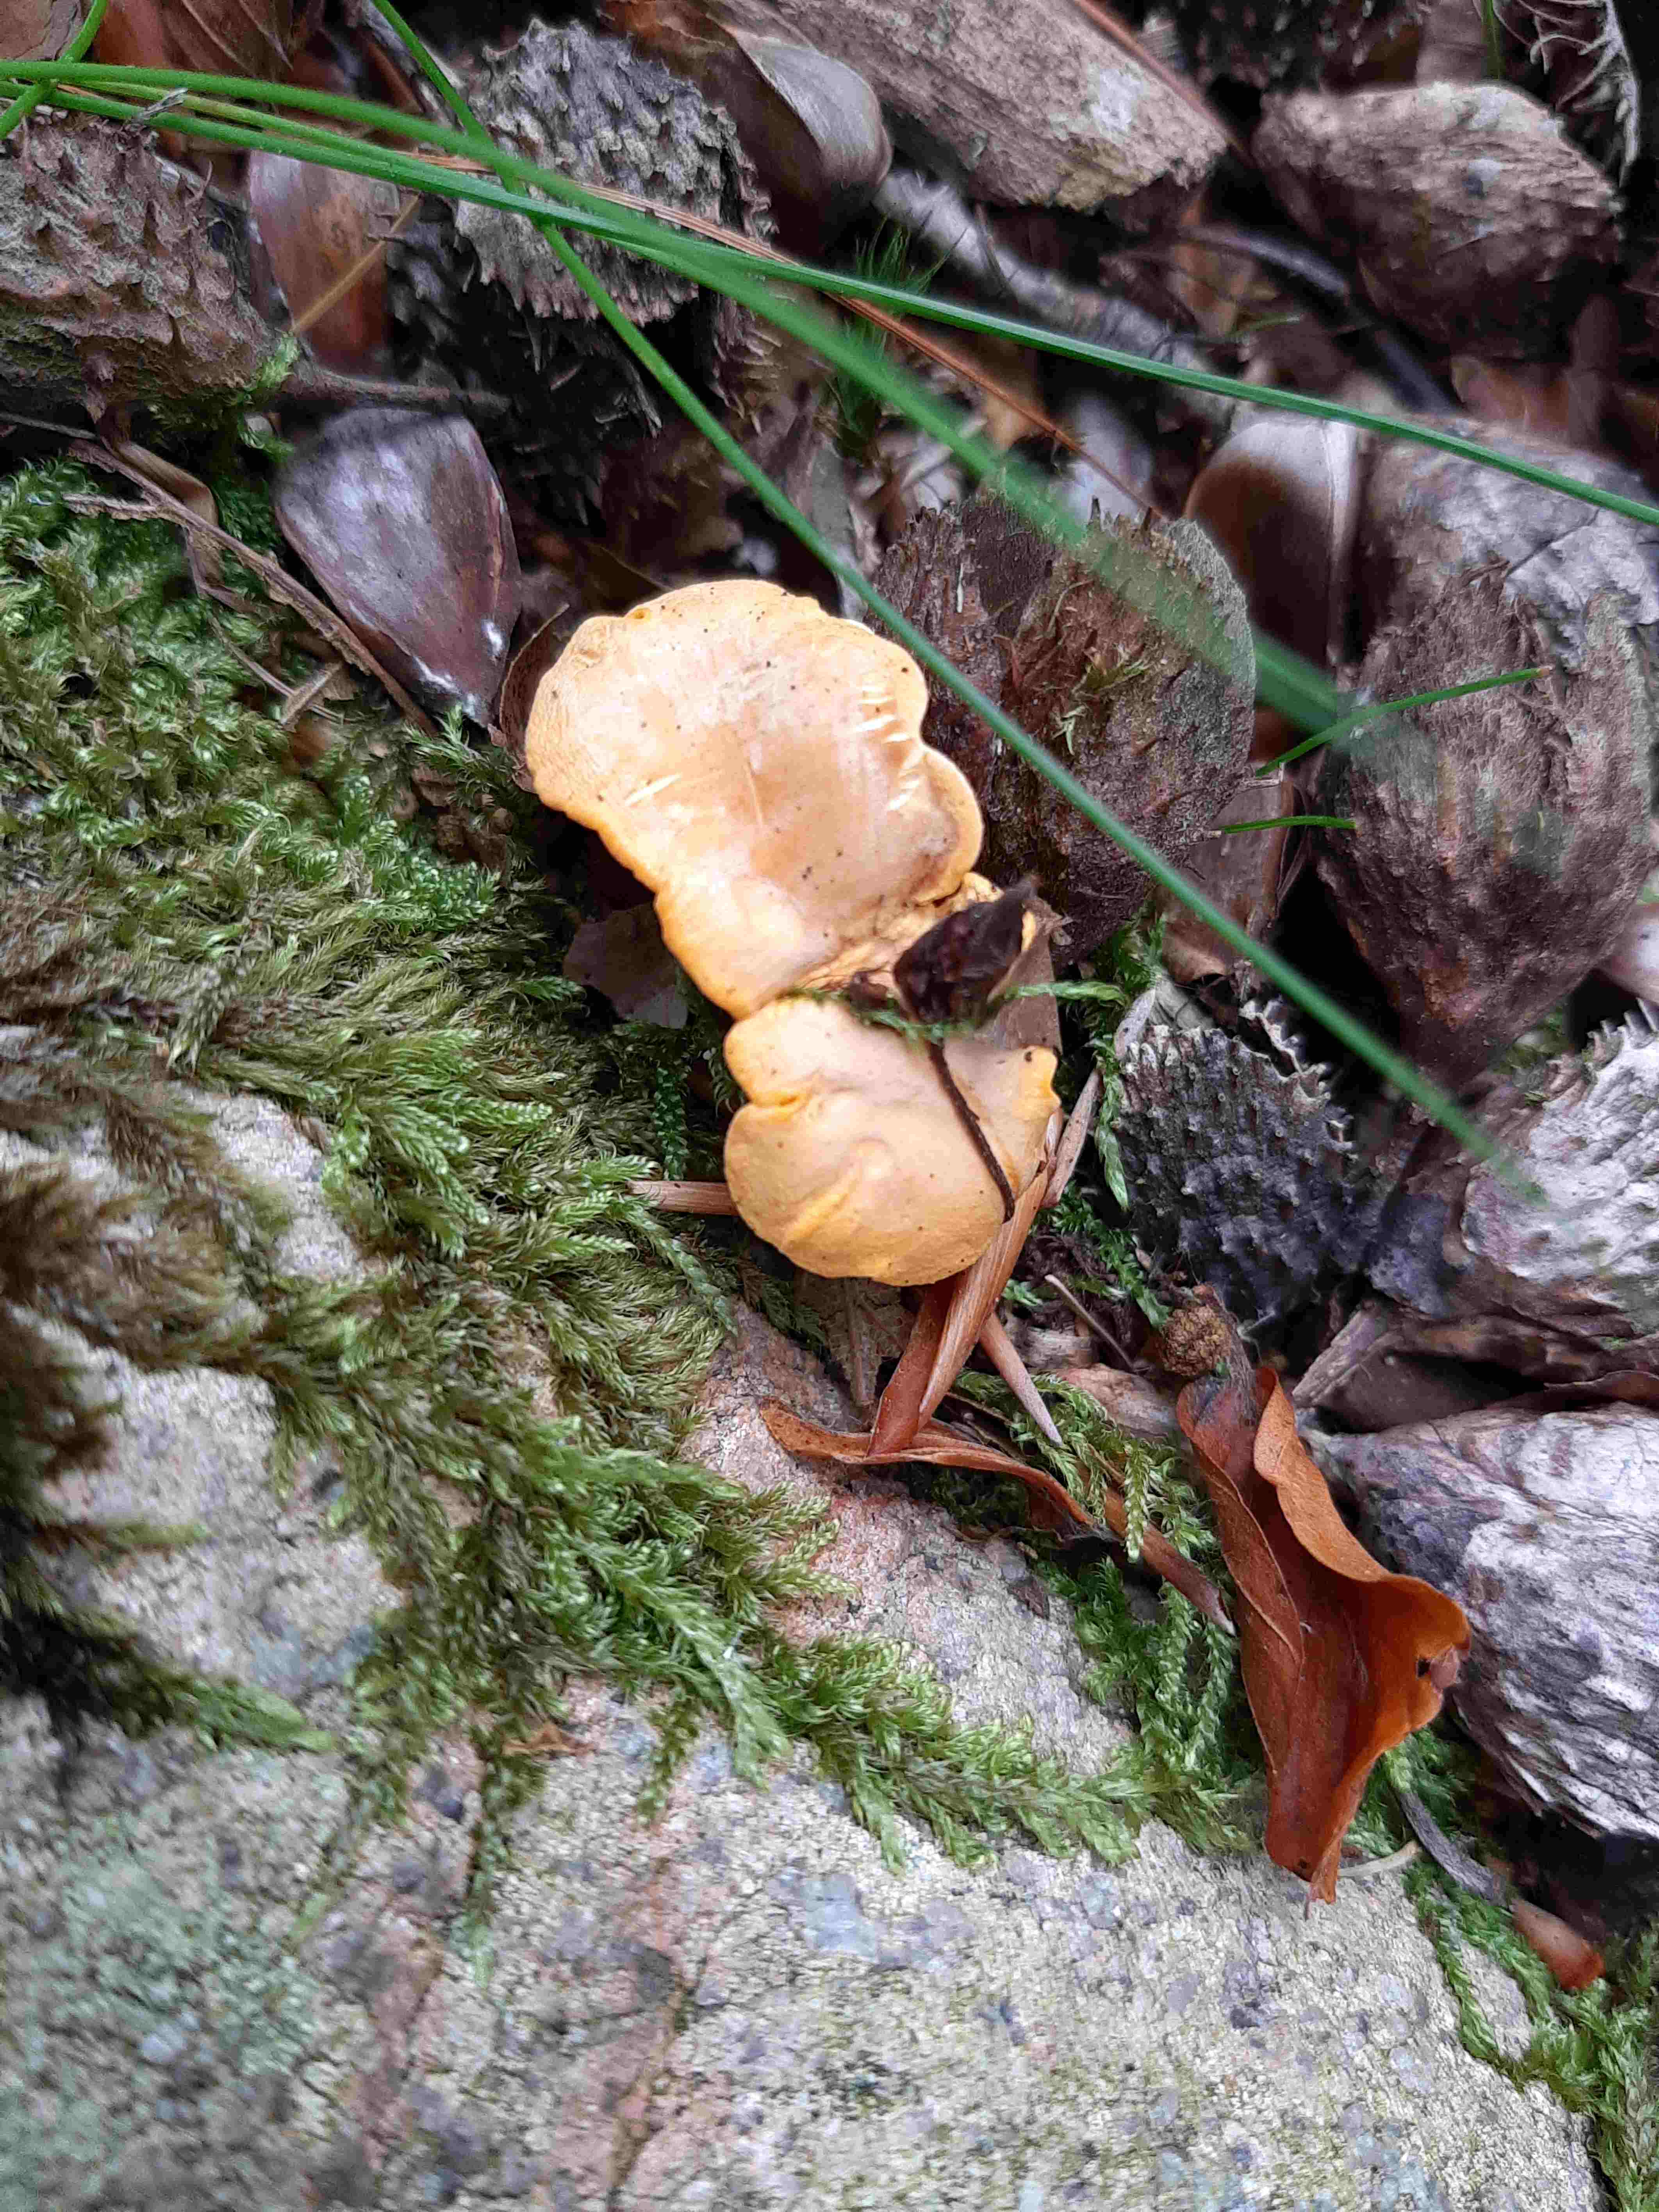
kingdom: Fungi
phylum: Basidiomycota
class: Agaricomycetes
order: Cantharellales
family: Hydnaceae
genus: Cantharellus
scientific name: Cantharellus cibarius
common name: almindelig kantarel
